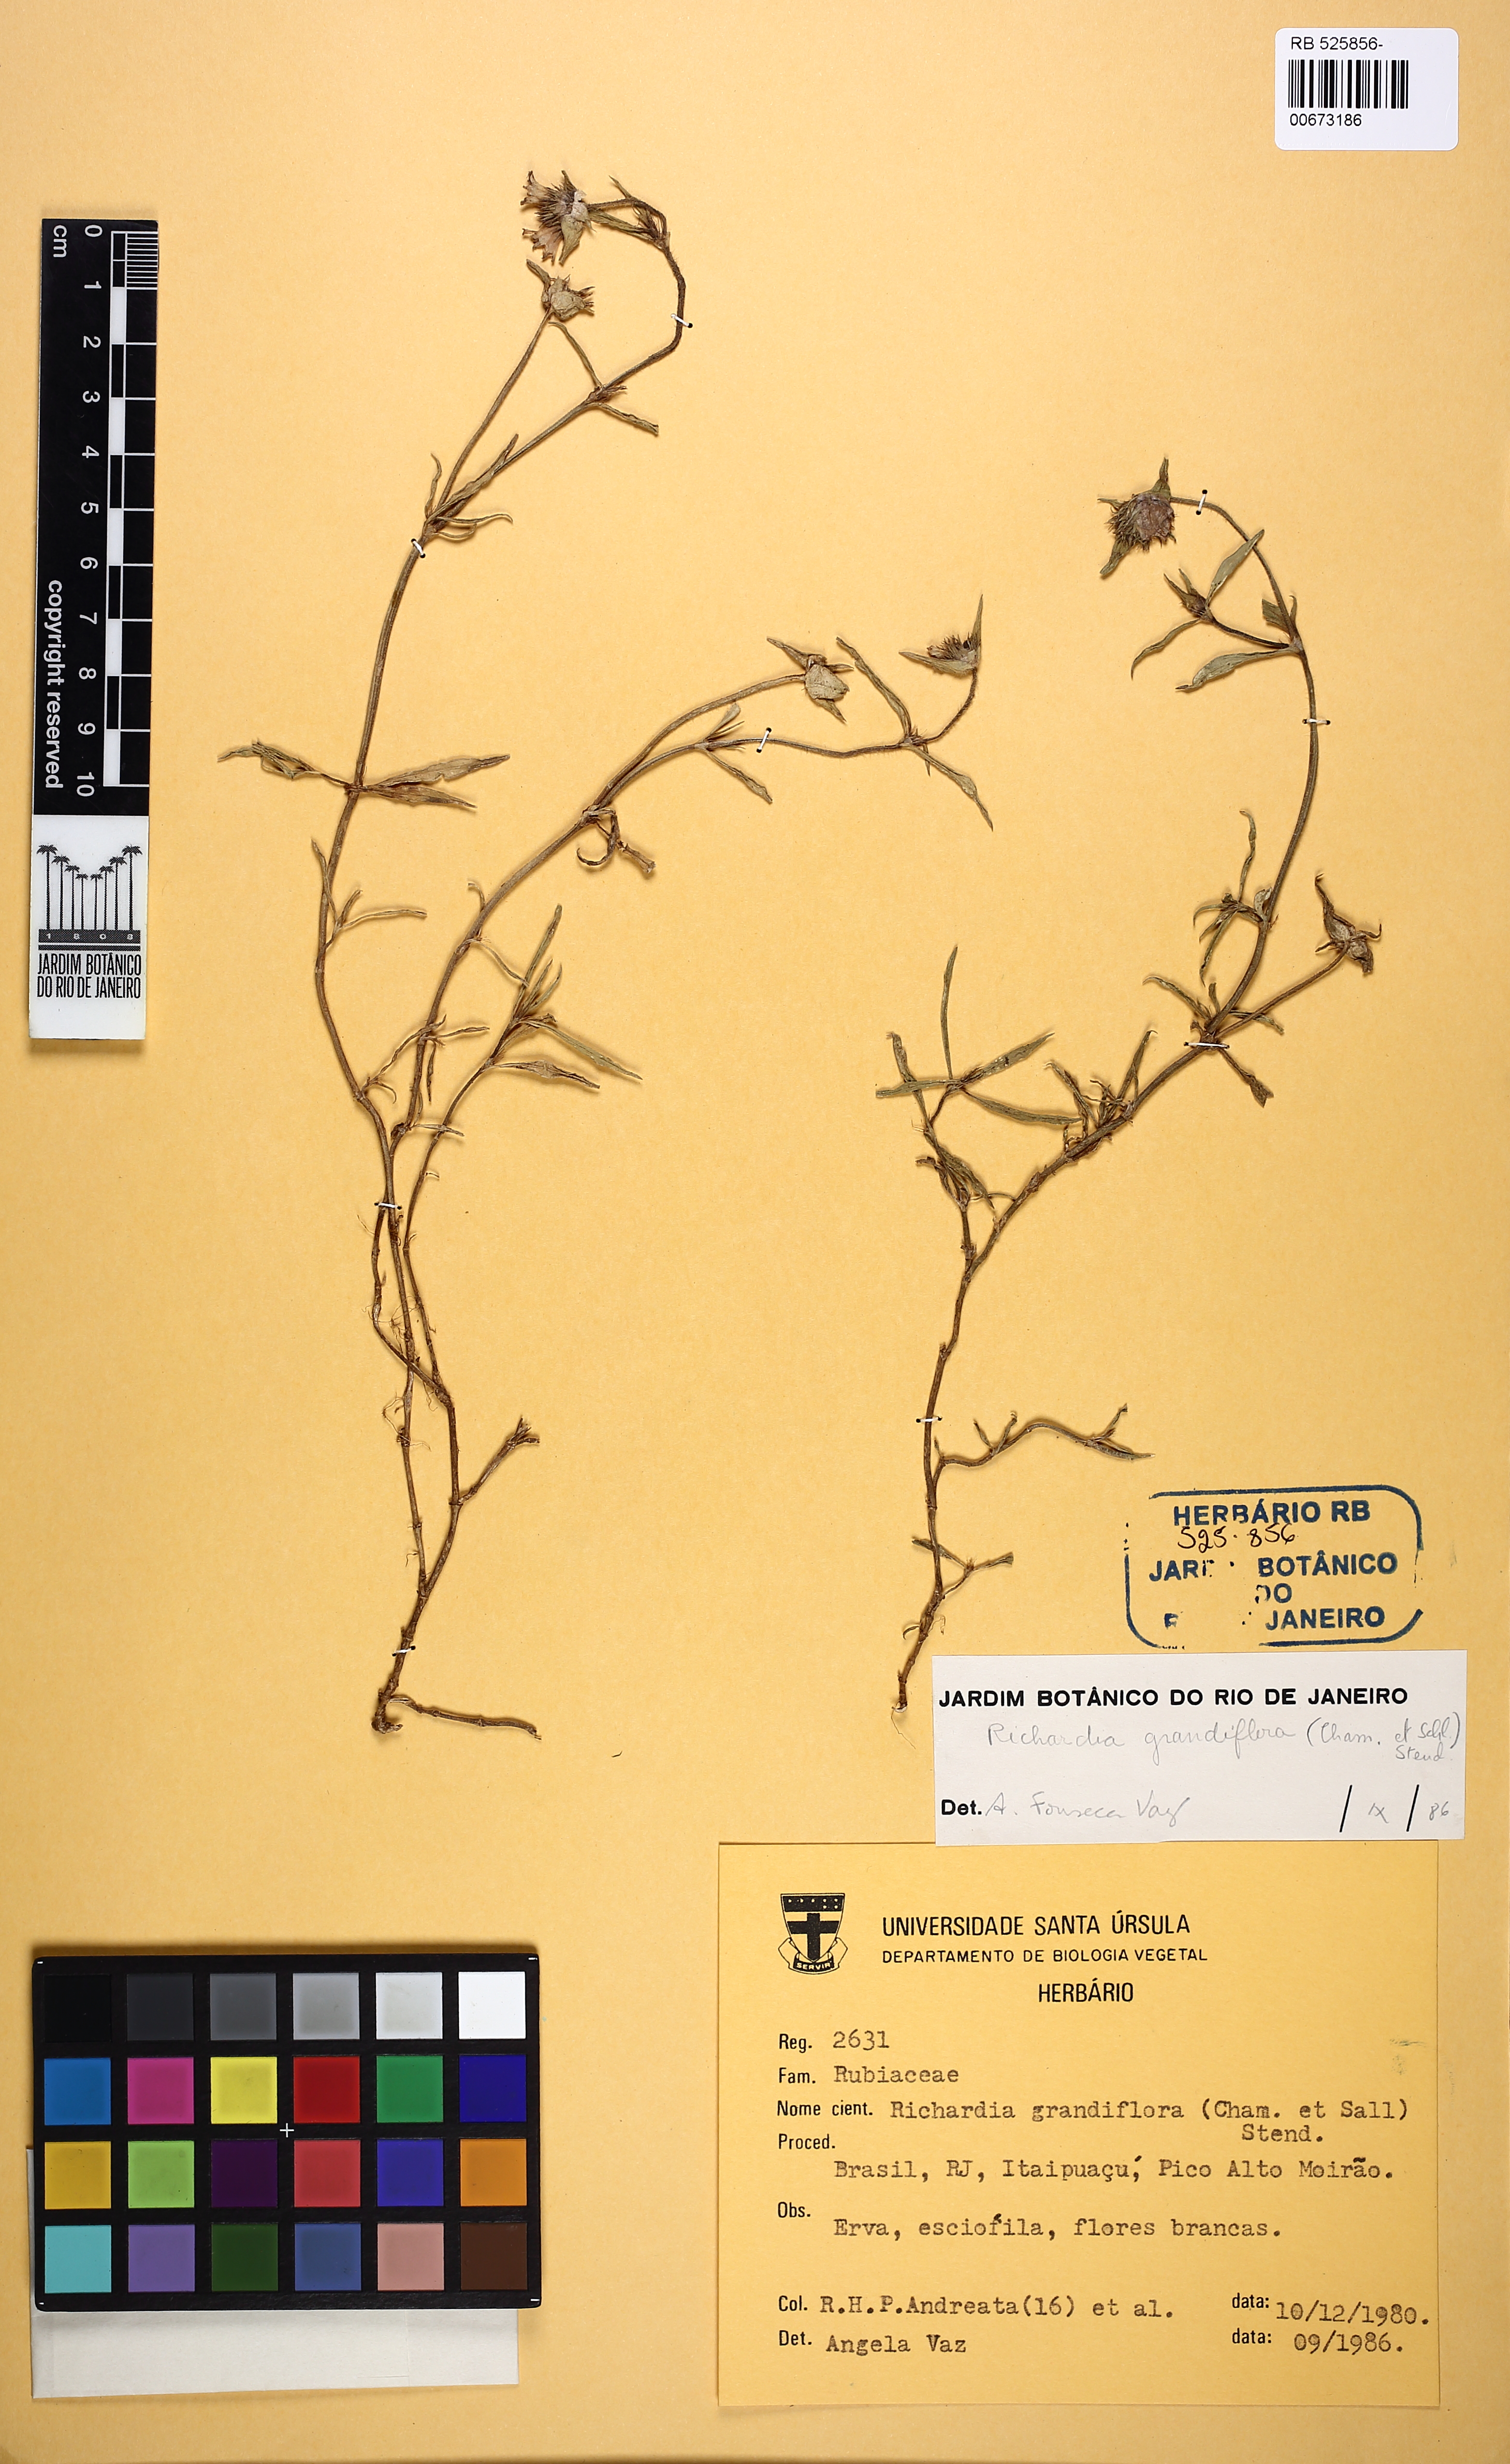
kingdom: Plantae
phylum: Tracheophyta
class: Magnoliopsida
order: Gentianales
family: Rubiaceae
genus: Richardia
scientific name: Richardia grandiflora
